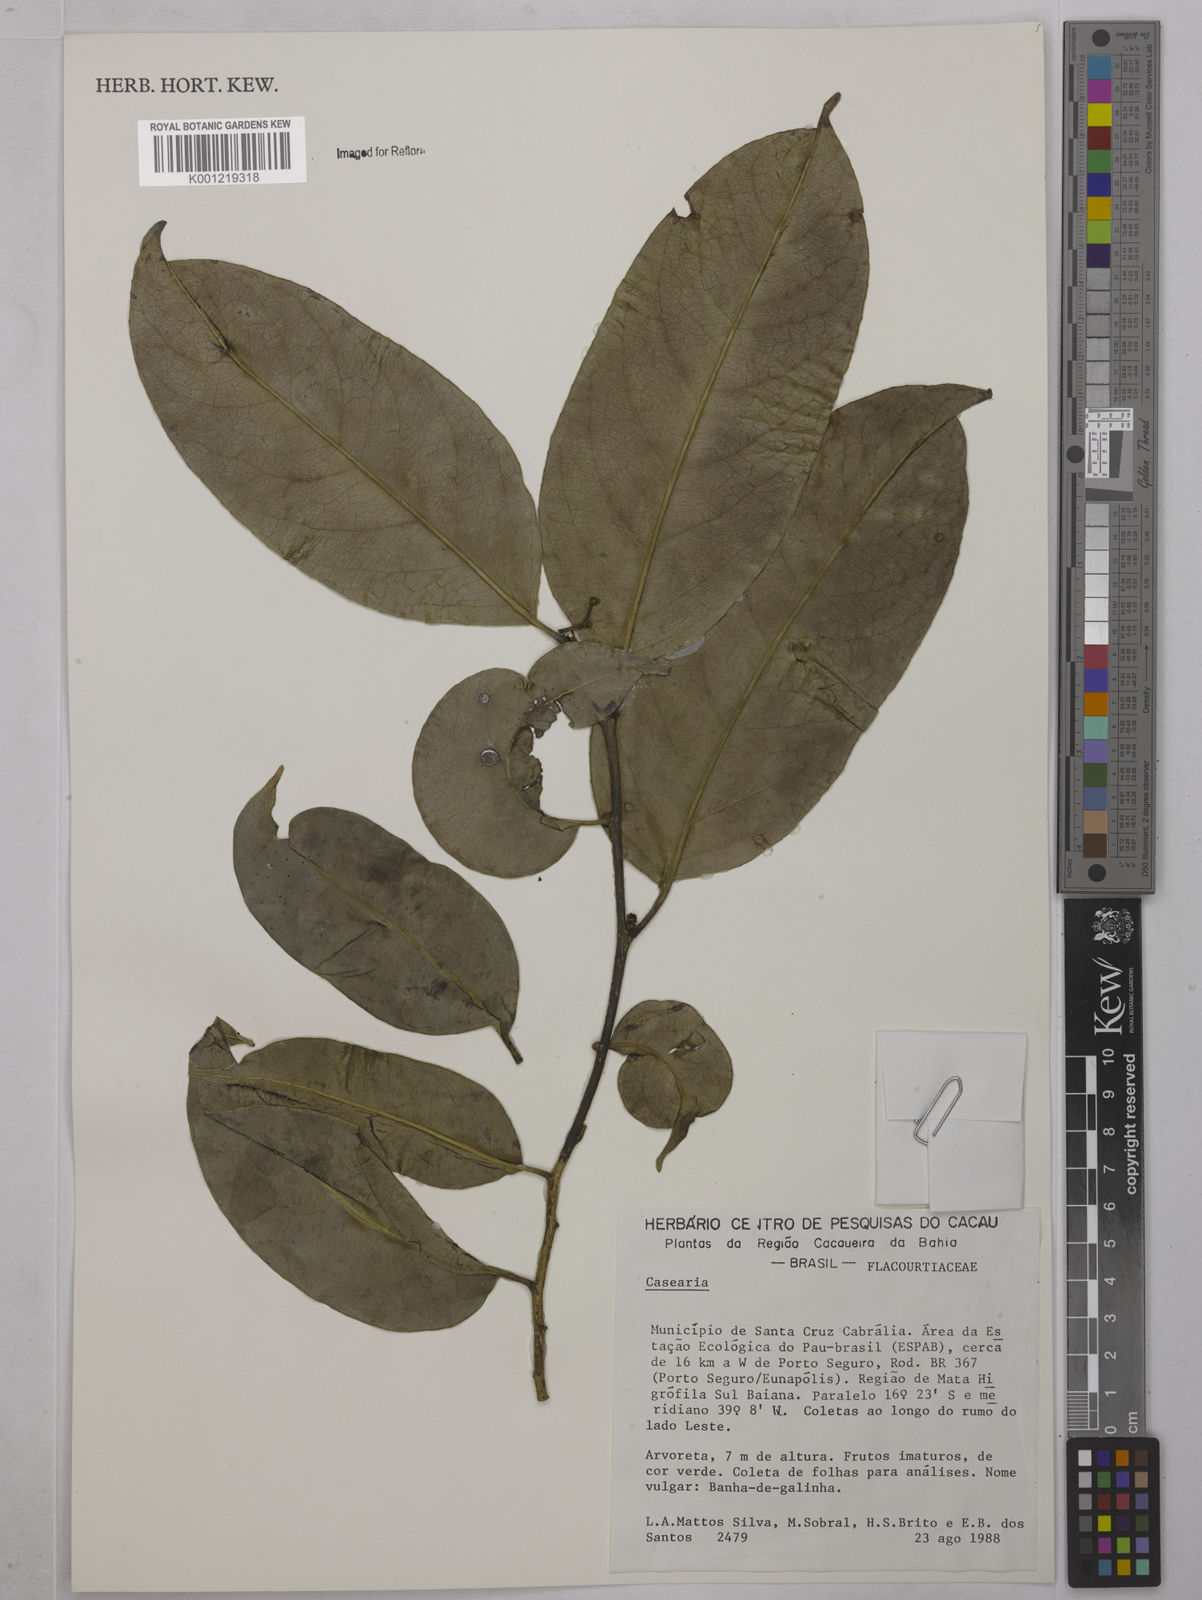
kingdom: Plantae
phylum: Tracheophyta
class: Magnoliopsida
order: Malpighiales
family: Salicaceae
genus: Casearia
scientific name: Casearia
